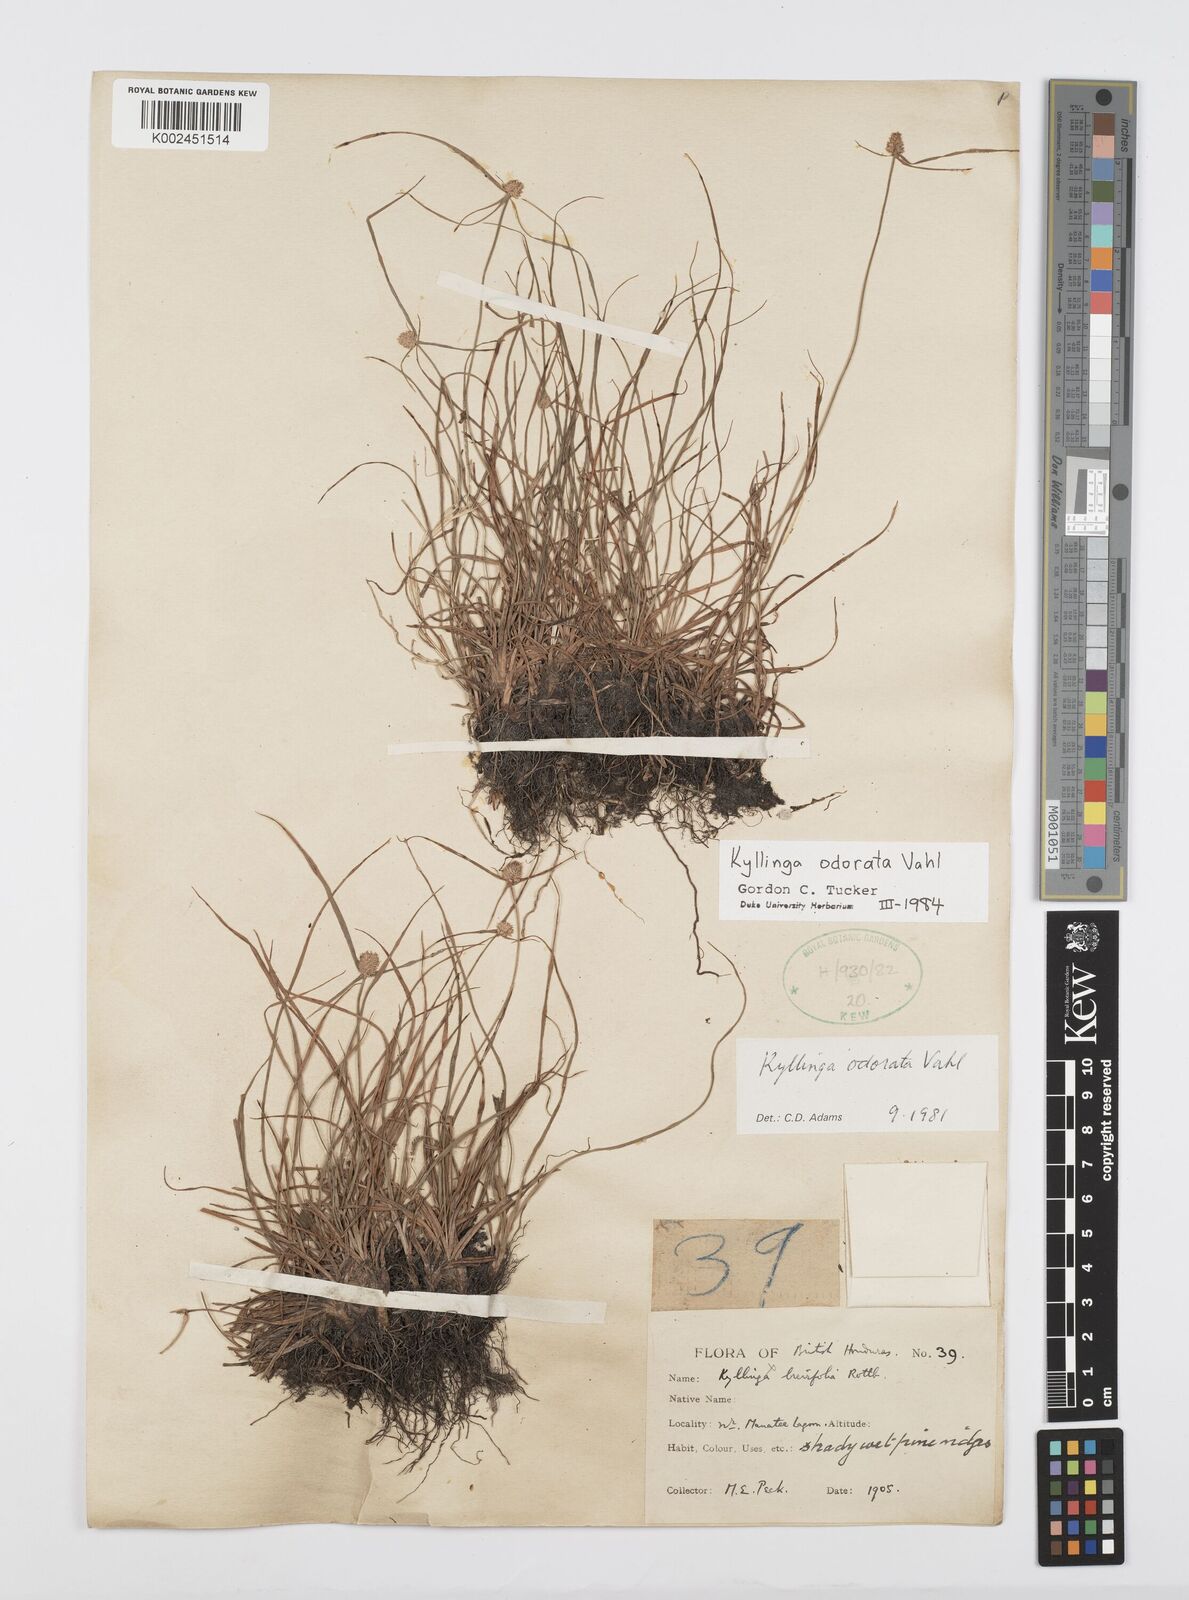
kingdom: Plantae
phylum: Tracheophyta
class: Liliopsida
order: Poales
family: Cyperaceae
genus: Cyperus
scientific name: Cyperus sesquiflorus
